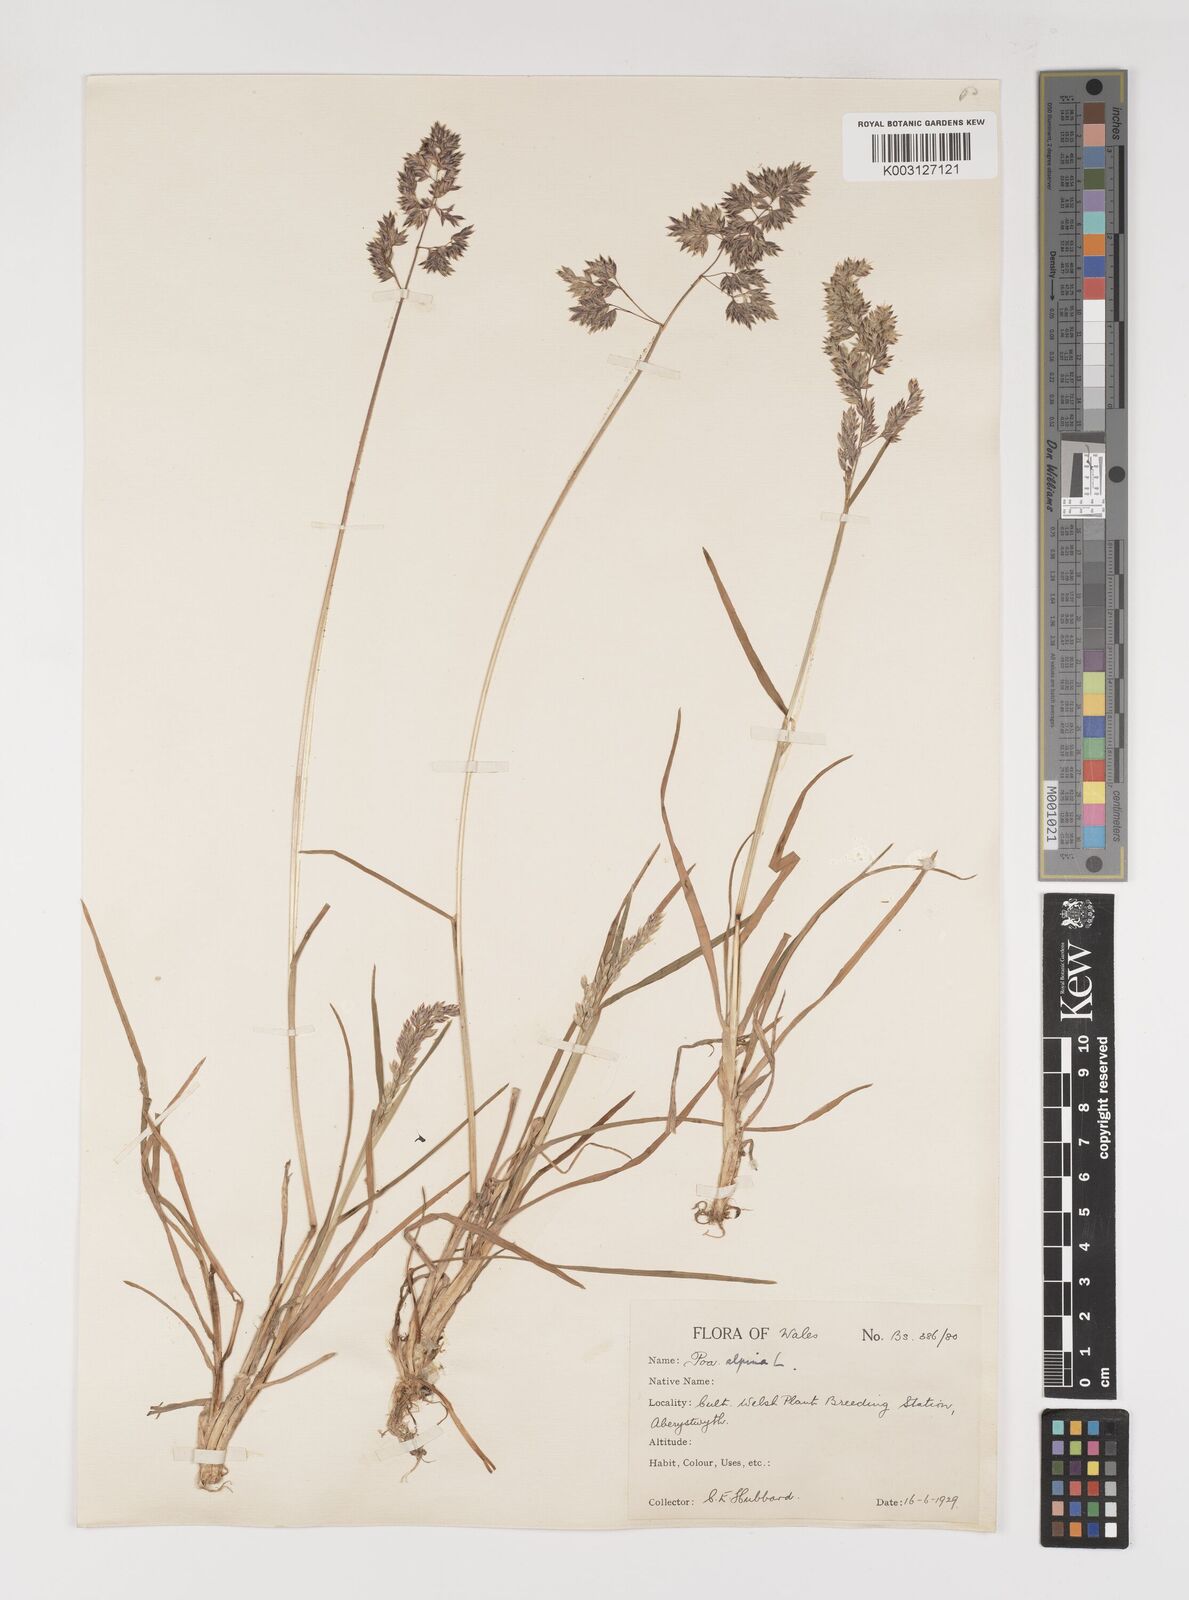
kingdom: Plantae
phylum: Tracheophyta
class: Liliopsida
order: Poales
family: Poaceae
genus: Poa
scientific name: Poa alpina
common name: Alpine bluegrass
